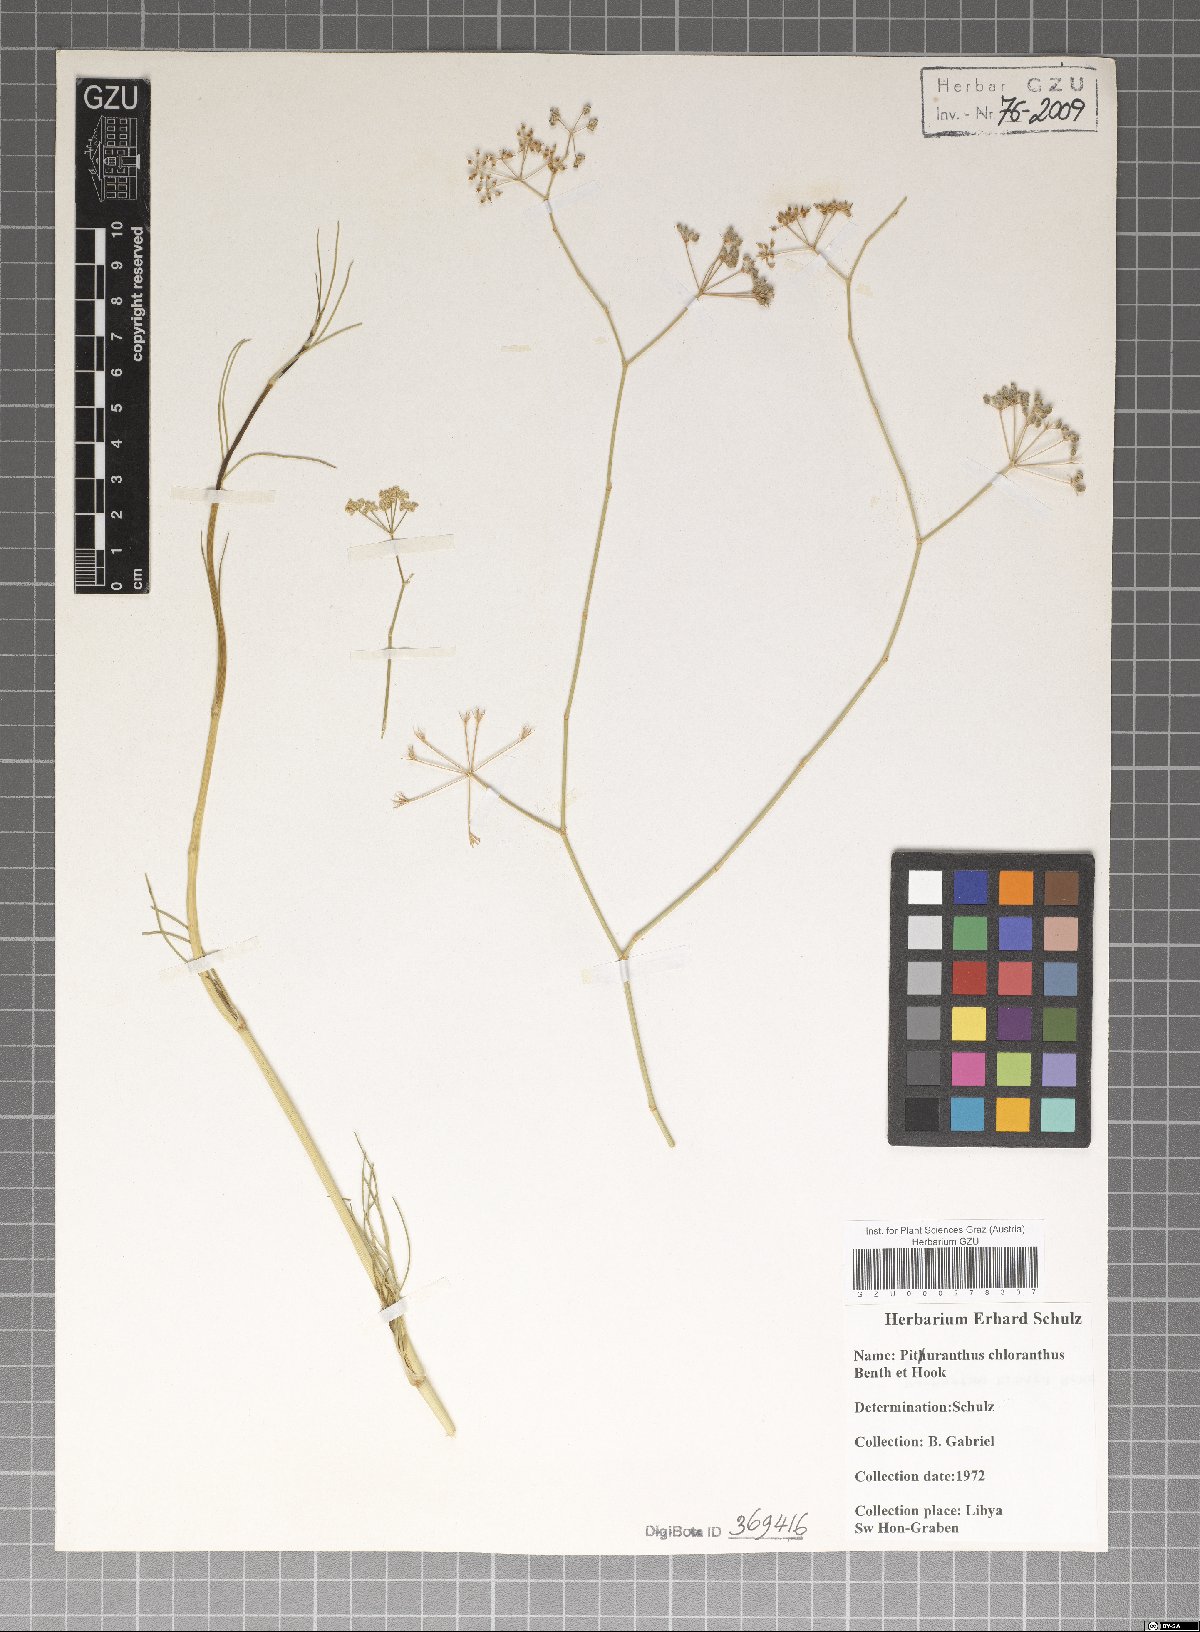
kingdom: Plantae
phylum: Tracheophyta
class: Magnoliopsida
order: Apiales
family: Apiaceae
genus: Deverra
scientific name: Deverra denudata
